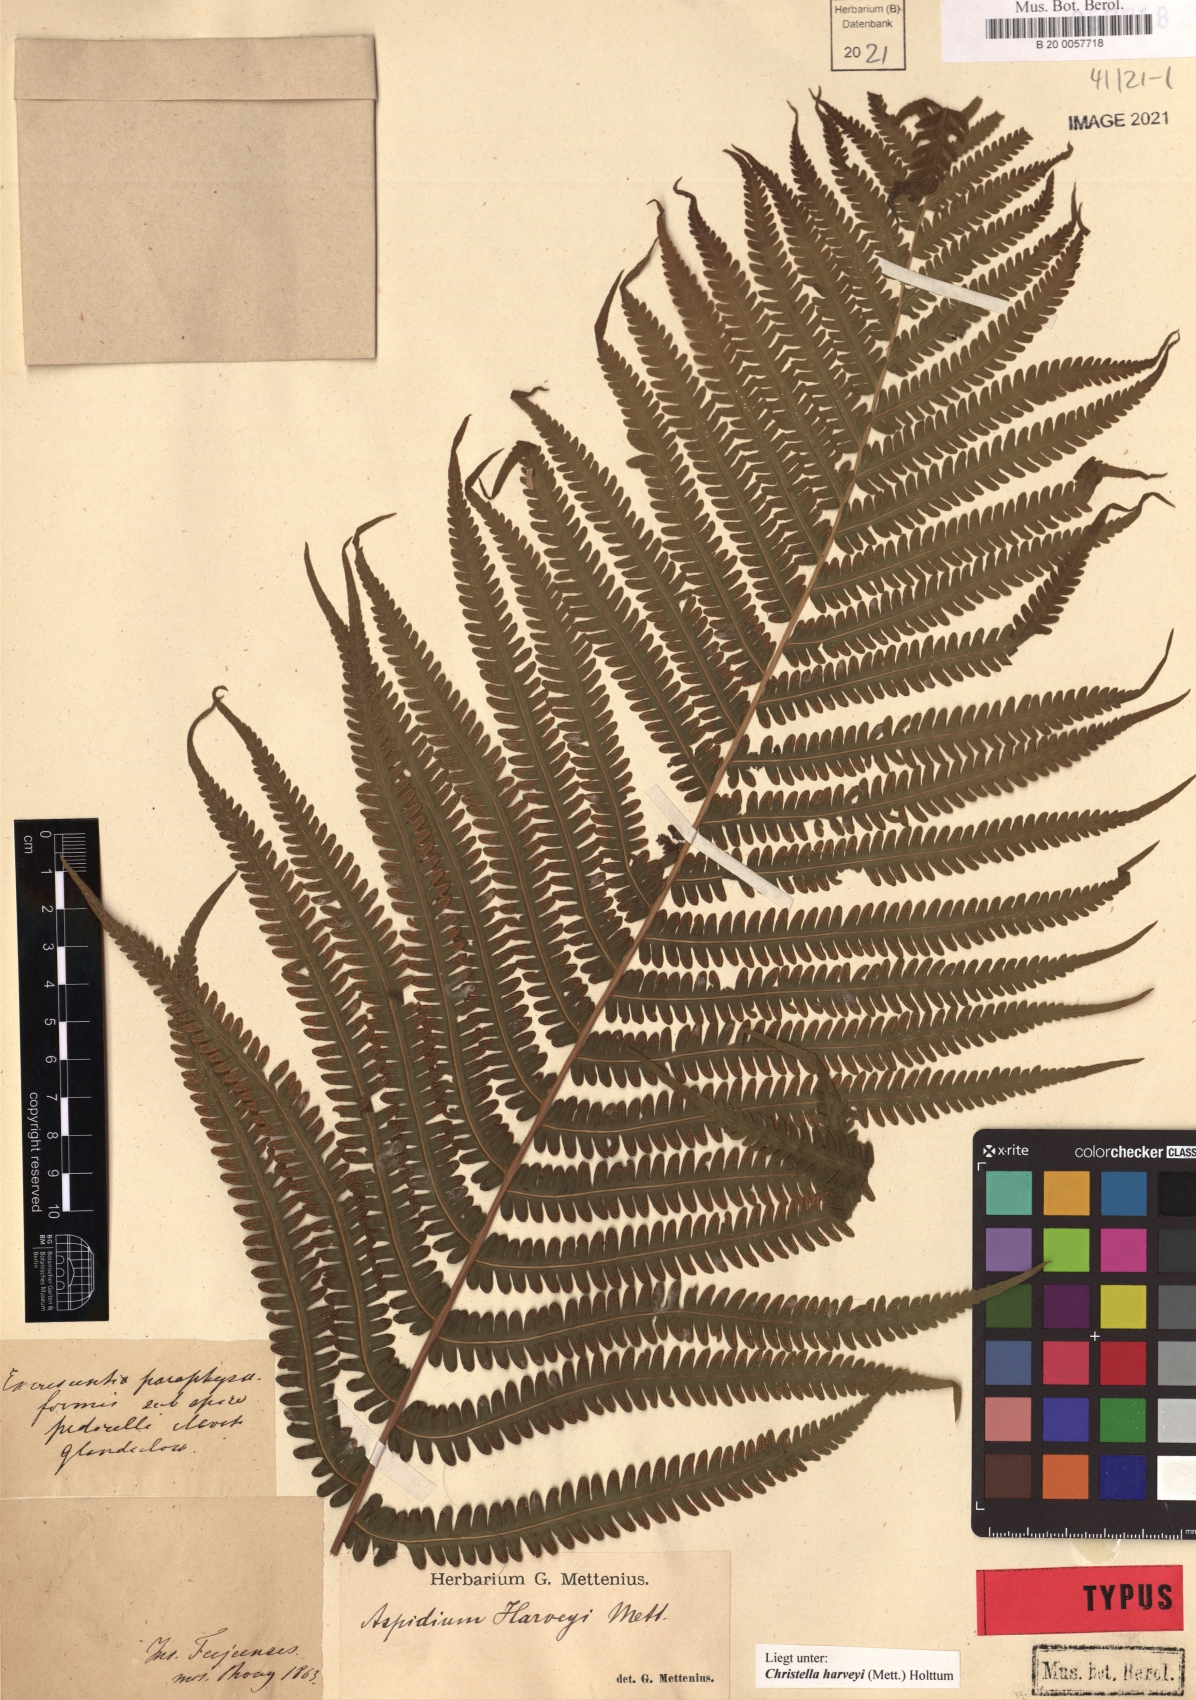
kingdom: Plantae
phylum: Tracheophyta
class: Polypodiopsida
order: Polypodiales
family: Thelypteridaceae
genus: Christella
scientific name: Christella harveyi
